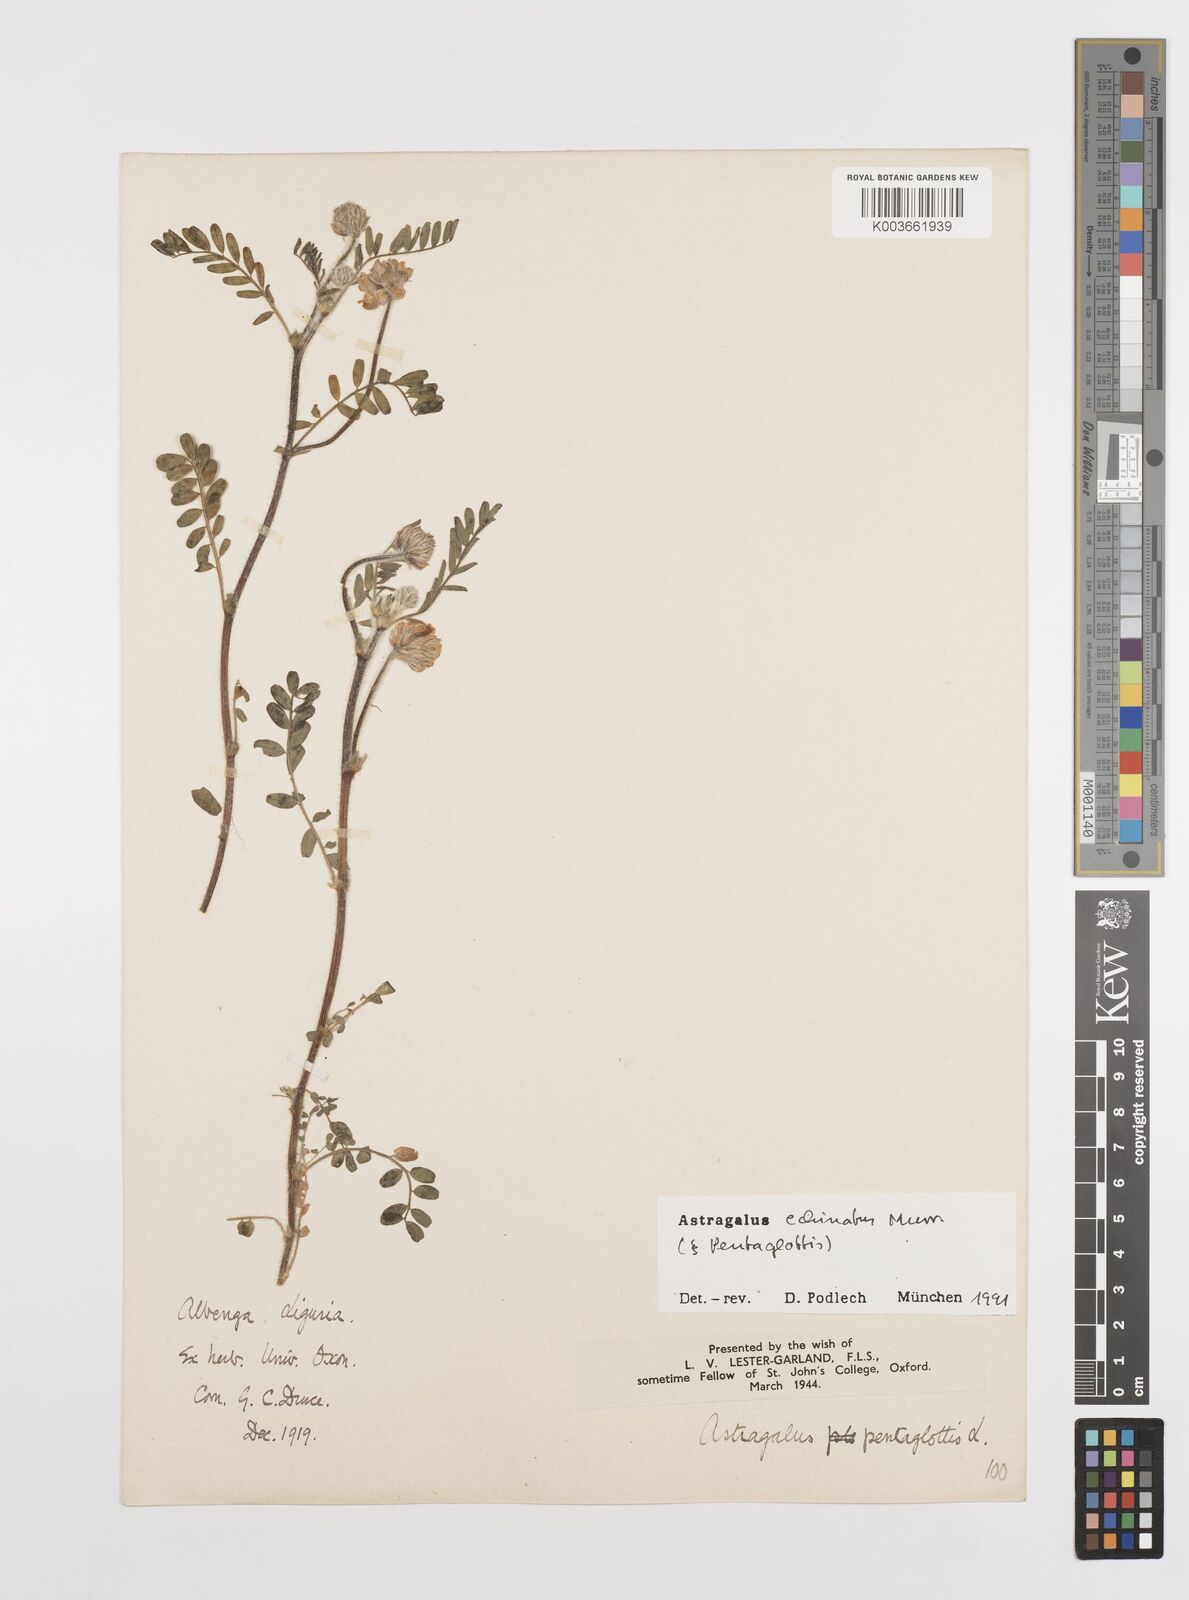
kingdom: Plantae
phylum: Tracheophyta
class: Magnoliopsida
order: Fabales
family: Fabaceae
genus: Astragalus
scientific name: Astragalus echinatus
